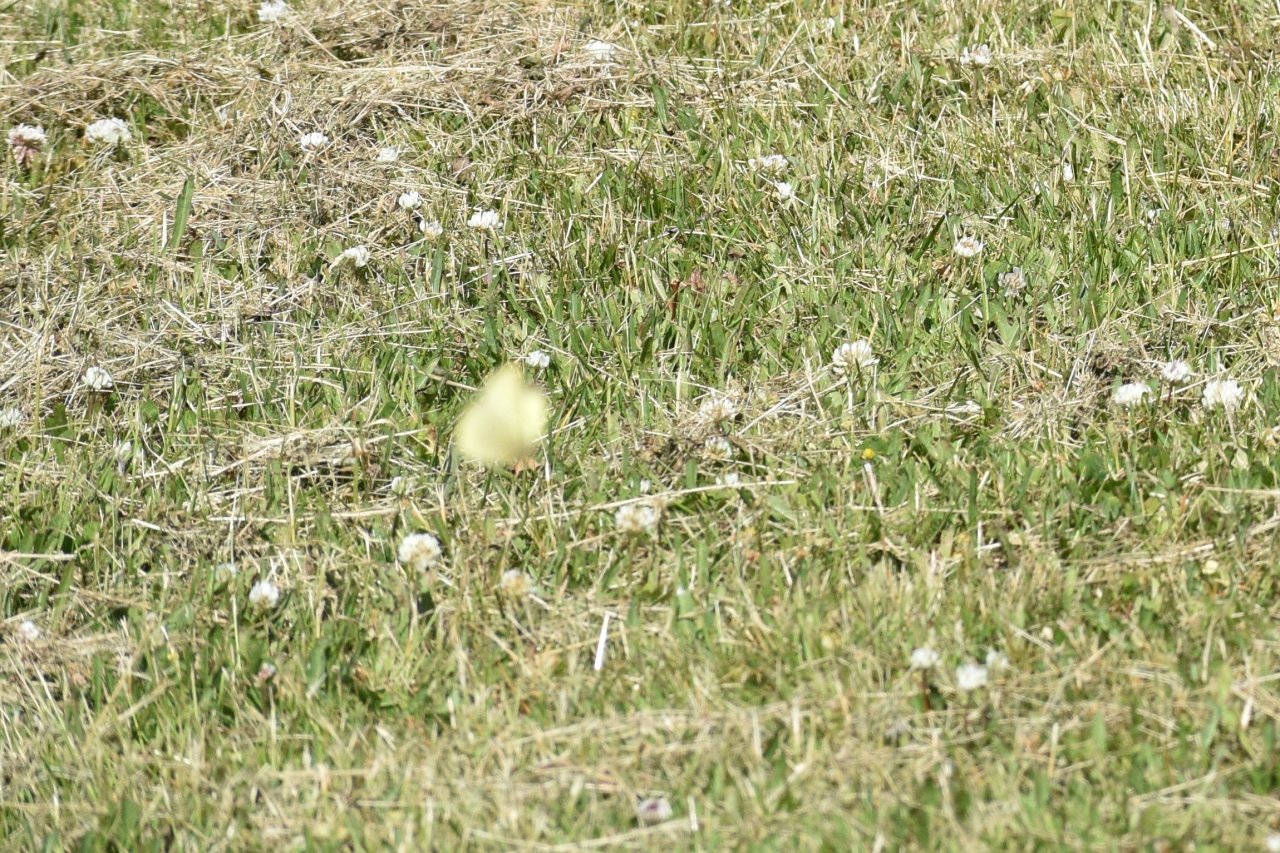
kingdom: Animalia
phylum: Arthropoda
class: Insecta
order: Lepidoptera
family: Pieridae
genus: Colias
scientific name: Colias philodice
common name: Clouded Sulphur
